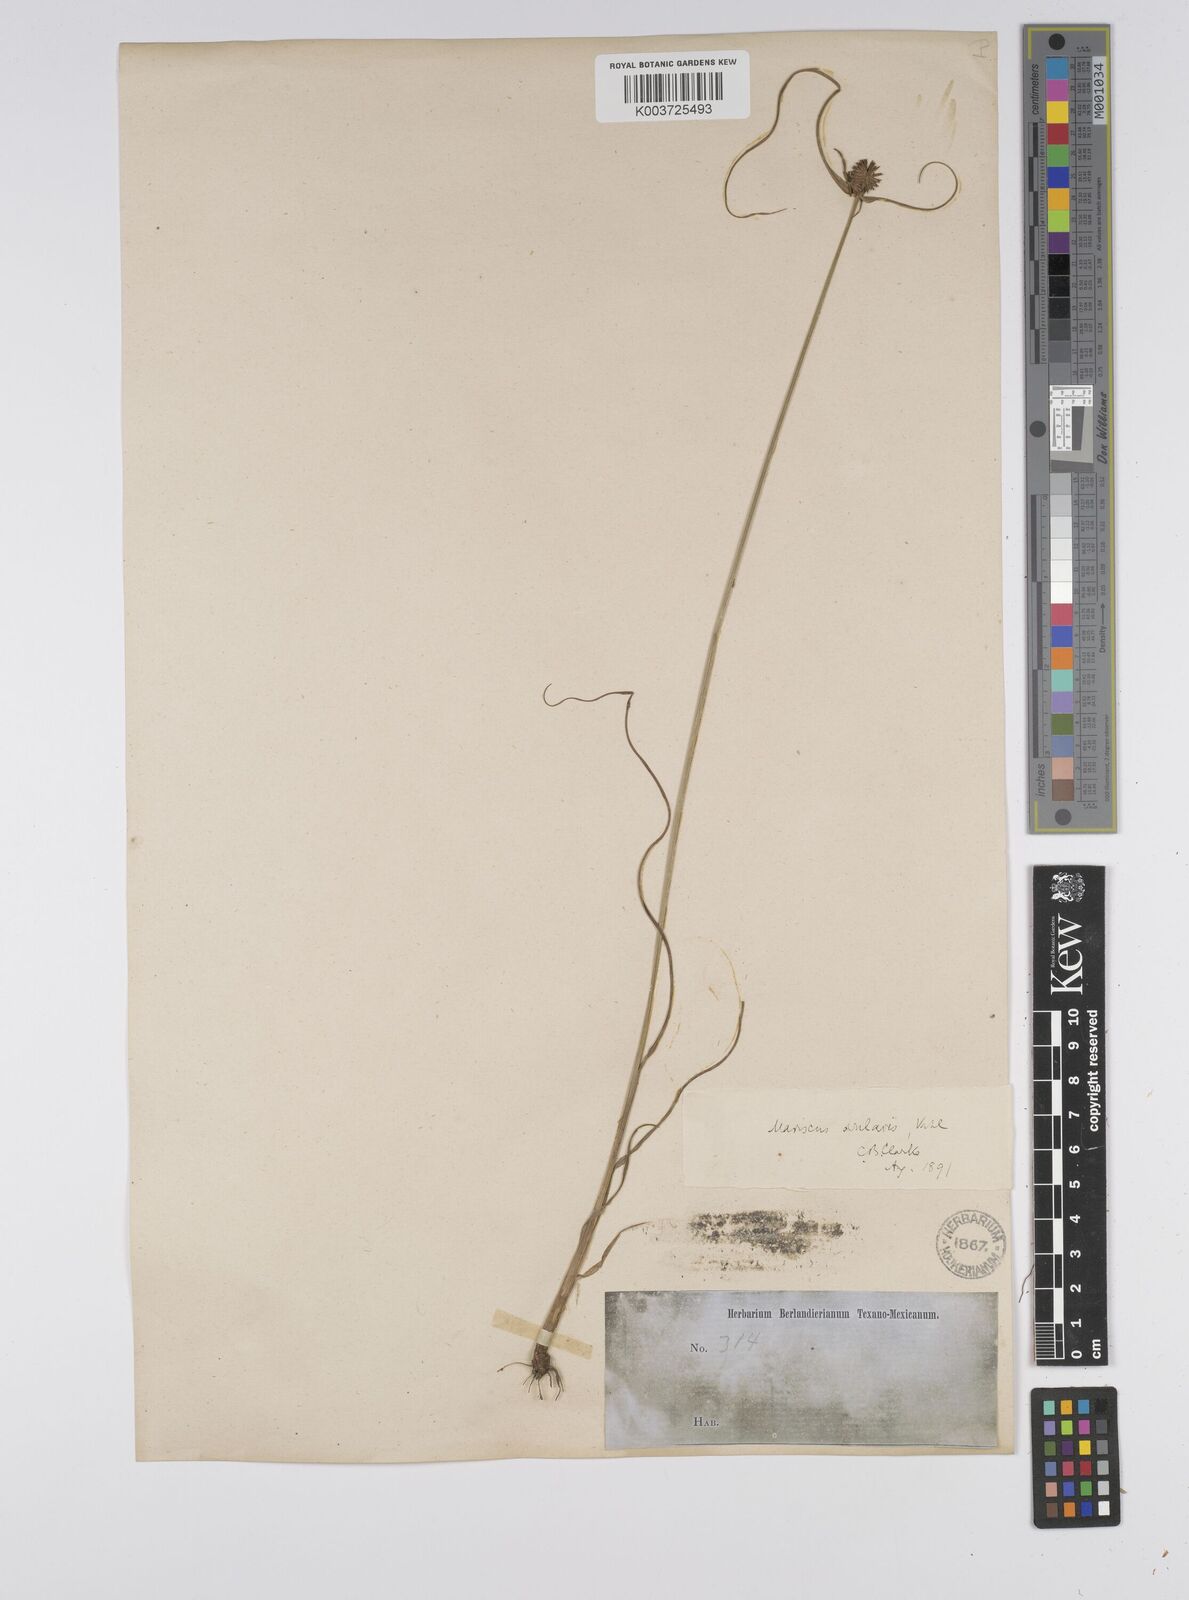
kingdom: Plantae
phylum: Tracheophyta
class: Liliopsida
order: Poales
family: Cyperaceae
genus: Cyperus
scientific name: Cyperus echinatus
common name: Teasel sedge
